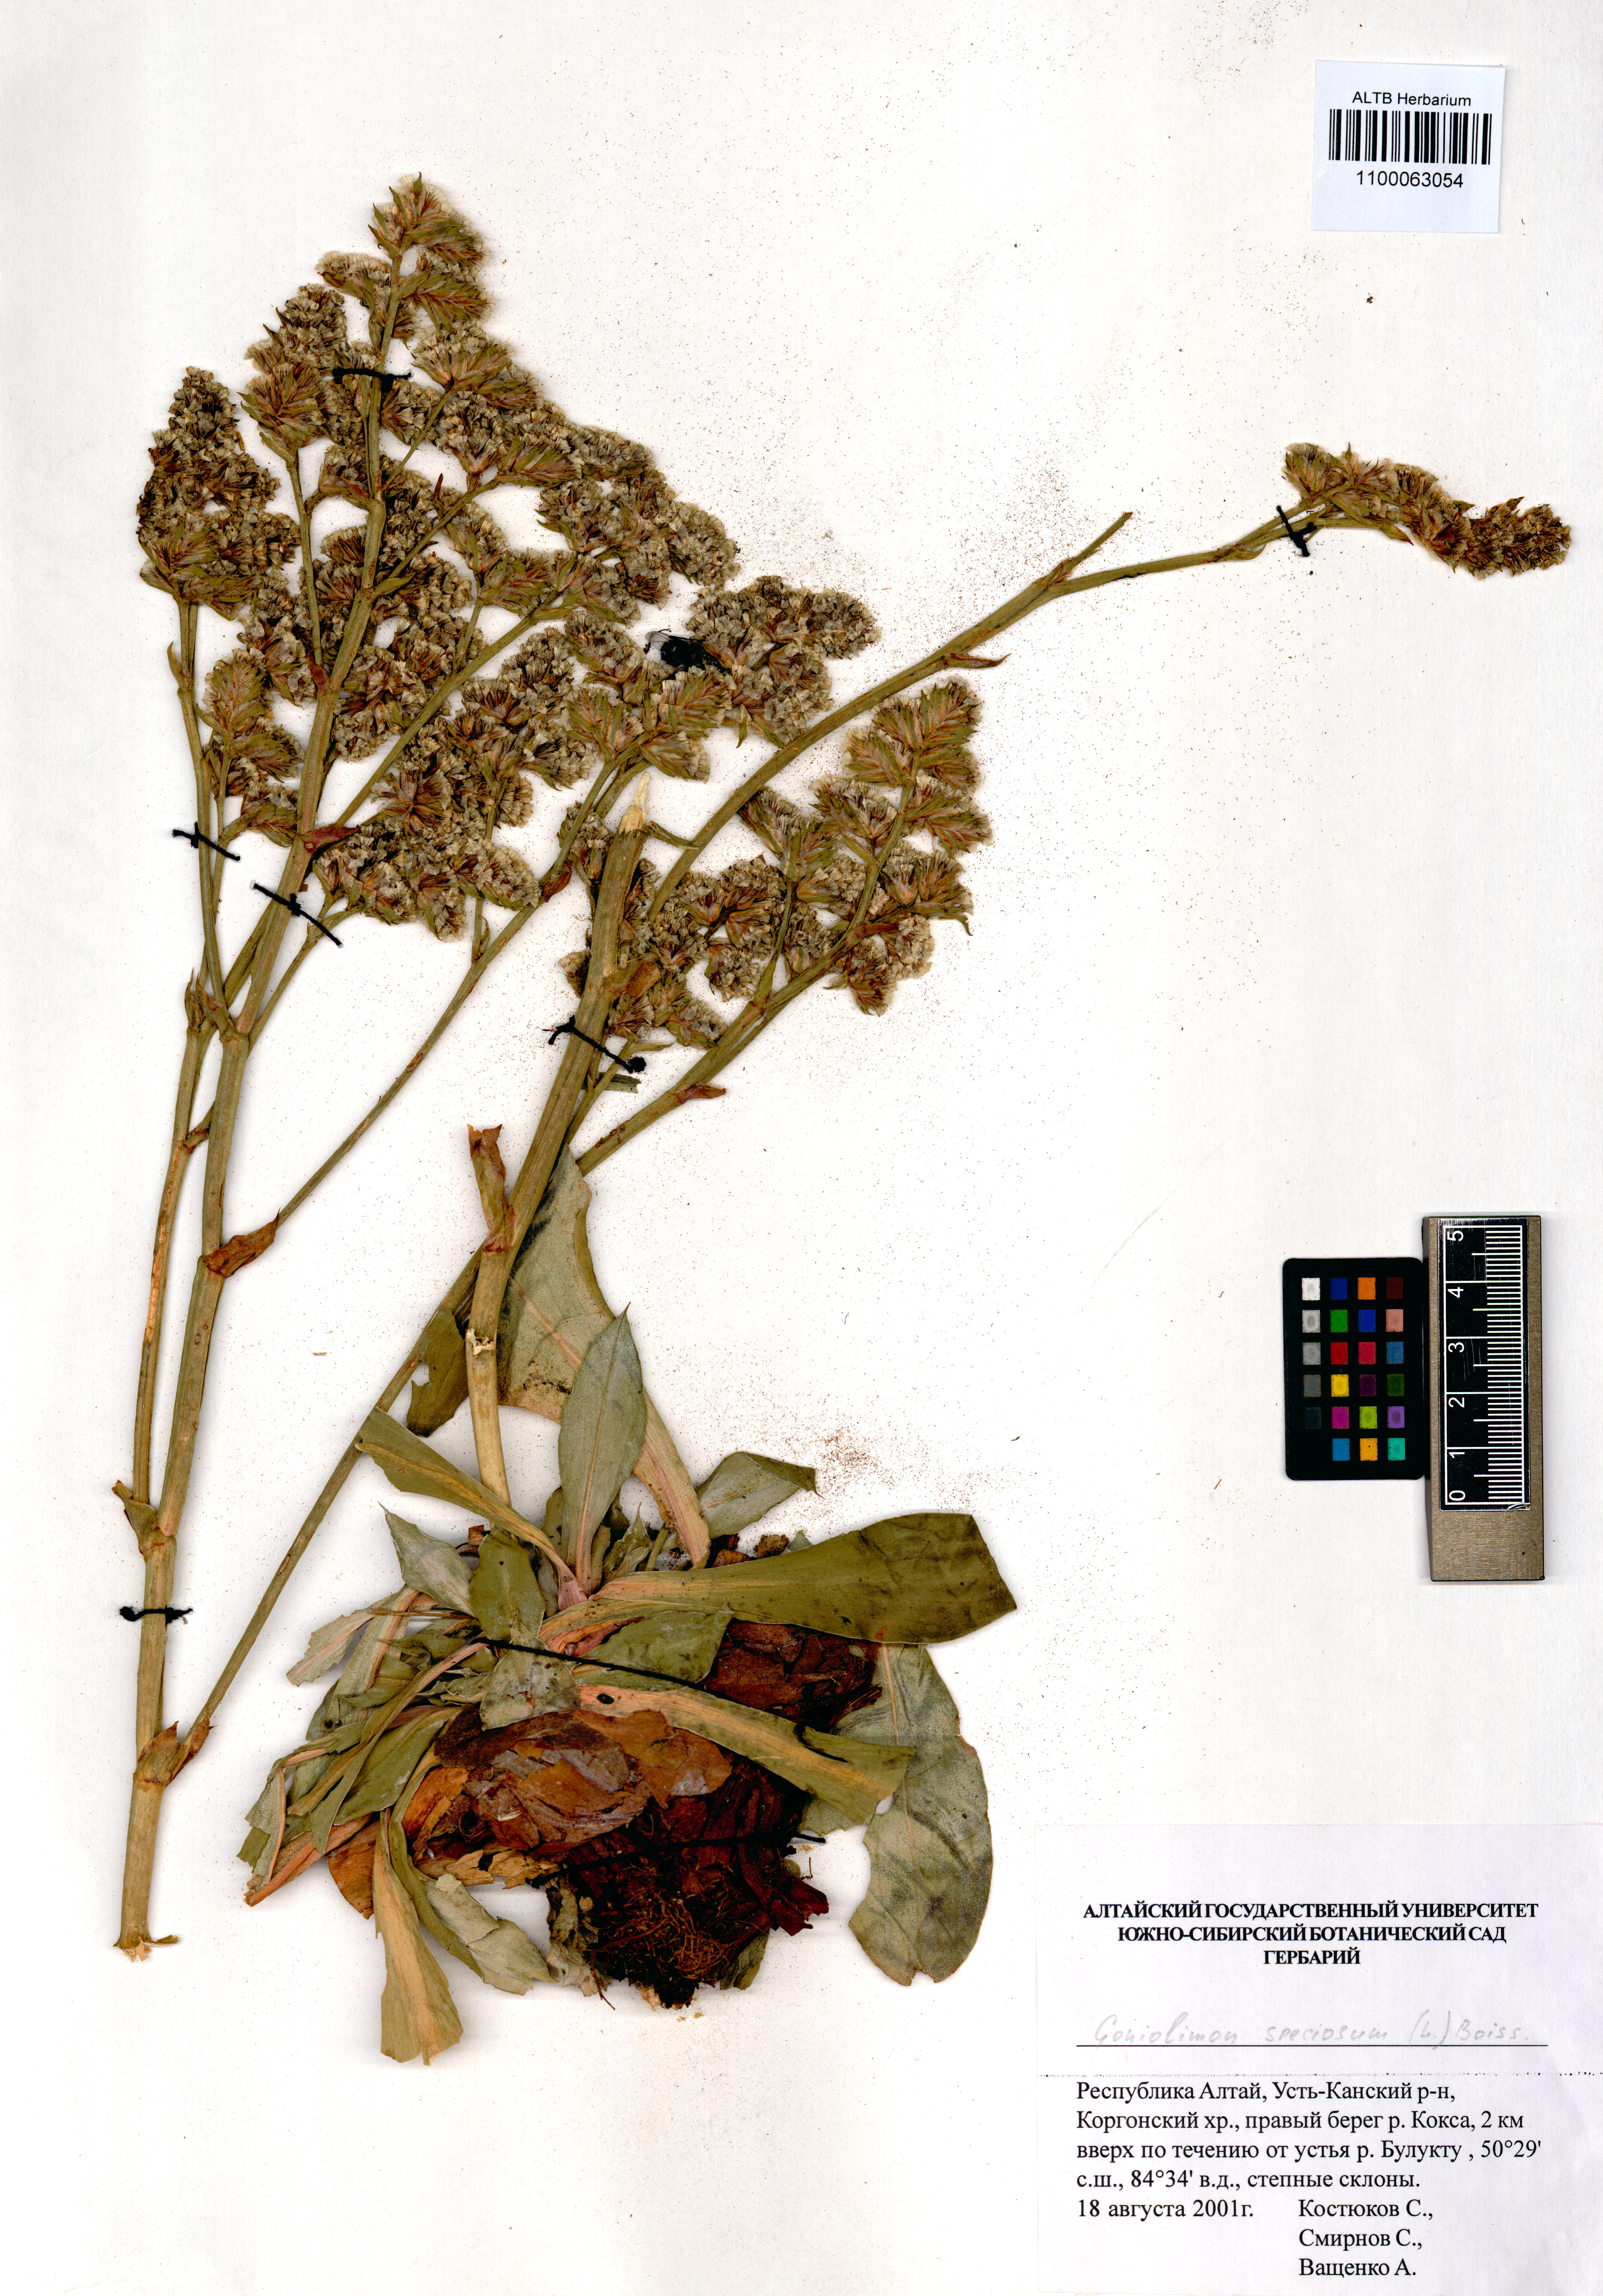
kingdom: Plantae
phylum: Tracheophyta
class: Magnoliopsida
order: Caryophyllales
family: Plumbaginaceae
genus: Goniolimon
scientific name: Goniolimon speciosum
